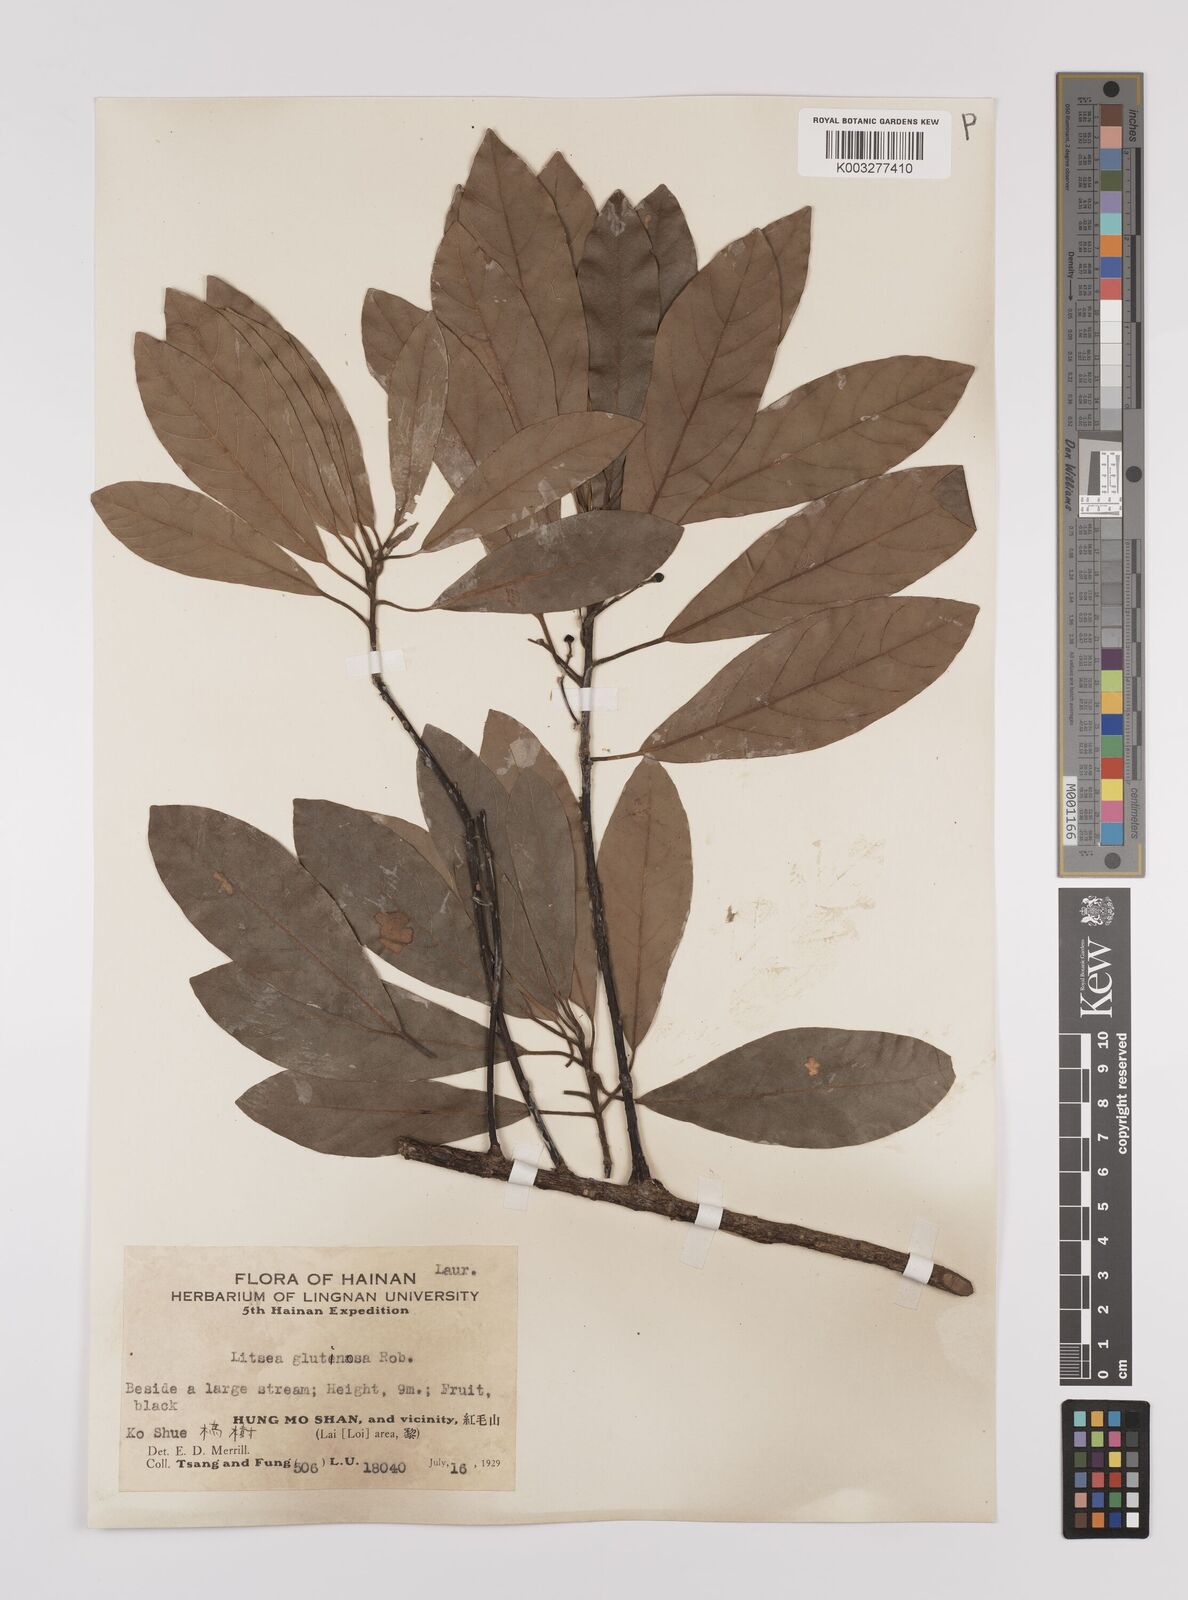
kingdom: Plantae
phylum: Tracheophyta
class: Magnoliopsida
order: Laurales
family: Lauraceae
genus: Litsea
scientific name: Litsea glutinosa
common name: Indian-laurel
